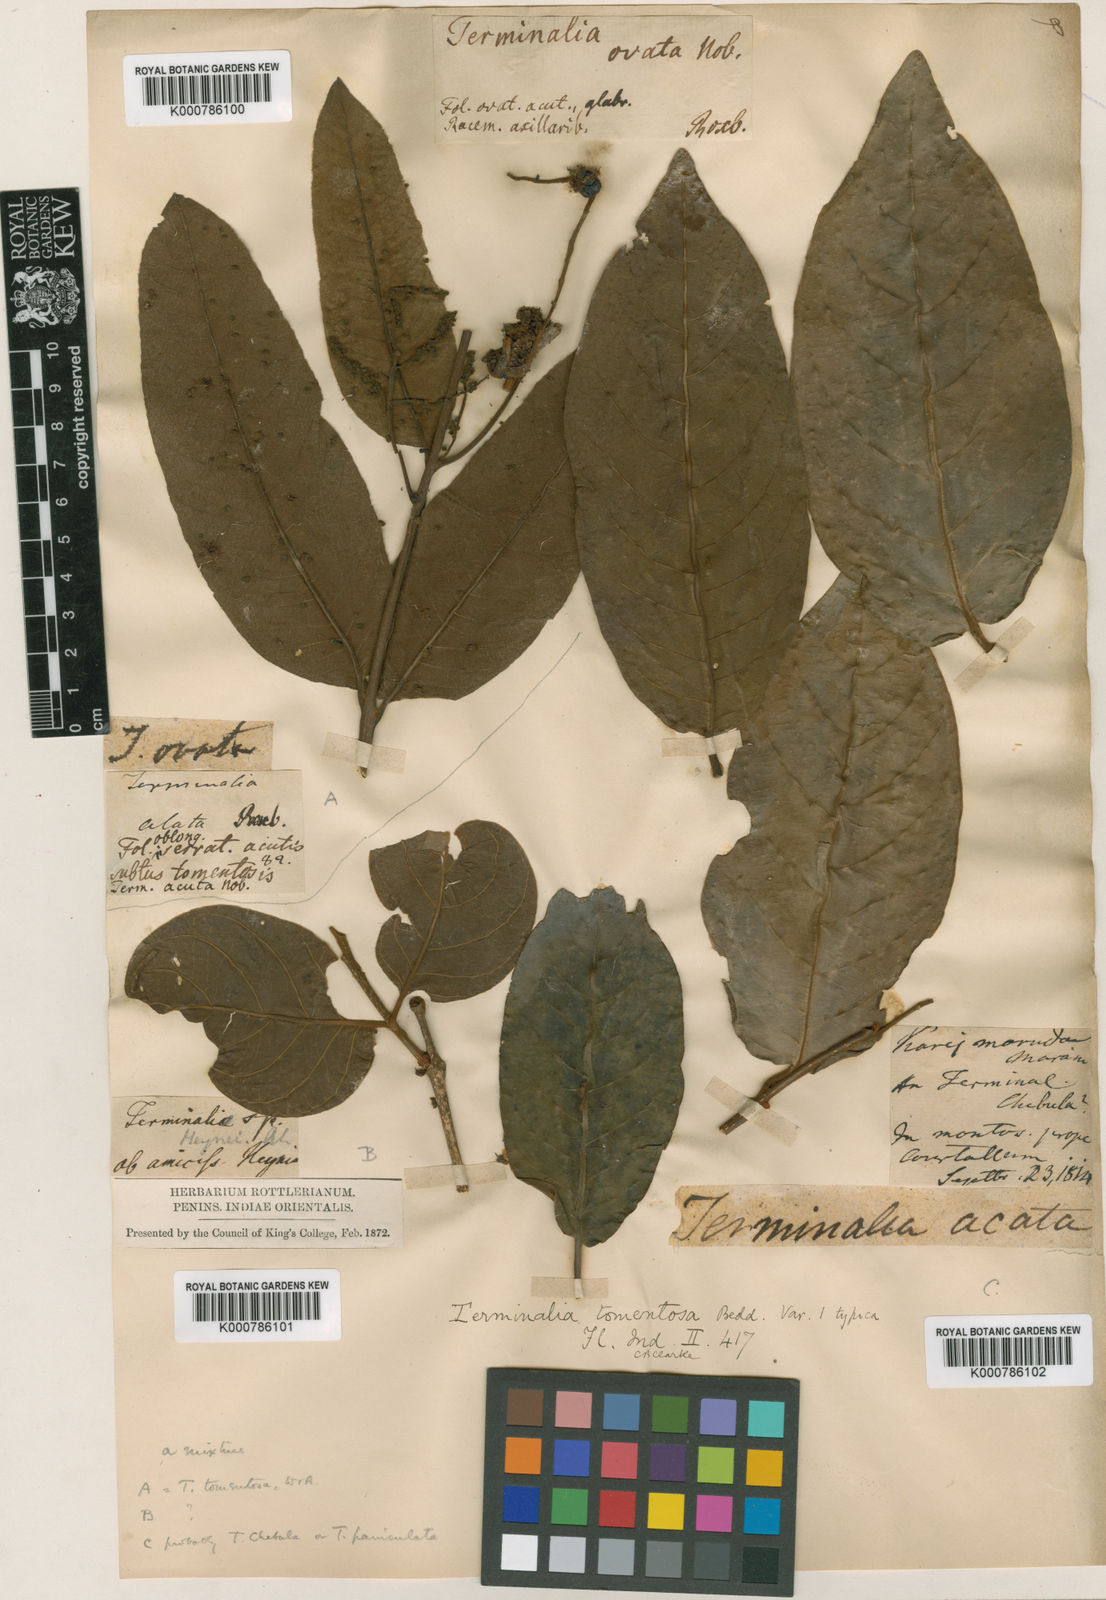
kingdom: Plantae
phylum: Tracheophyta
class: Magnoliopsida
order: Myrtales
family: Combretaceae
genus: Terminalia
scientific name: Terminalia
